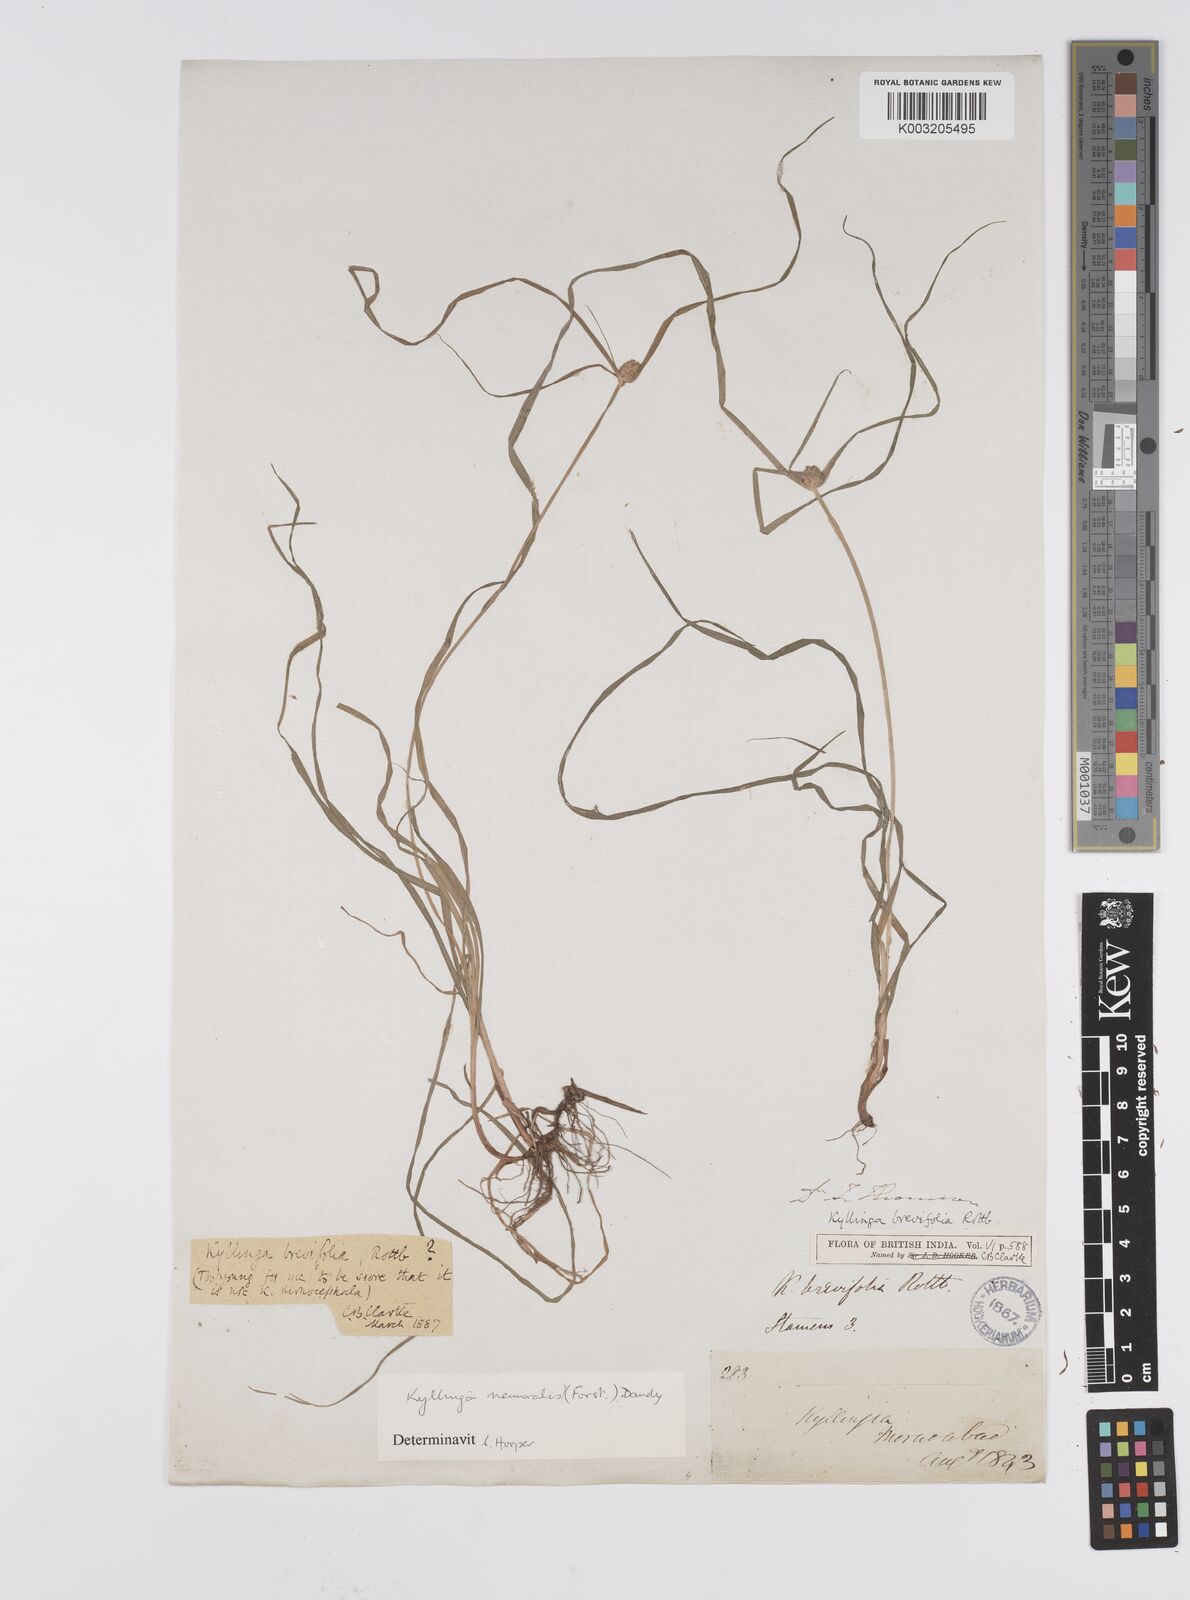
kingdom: Plantae
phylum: Tracheophyta
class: Liliopsida
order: Poales
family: Cyperaceae
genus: Cyperus
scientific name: Cyperus nemoralis
